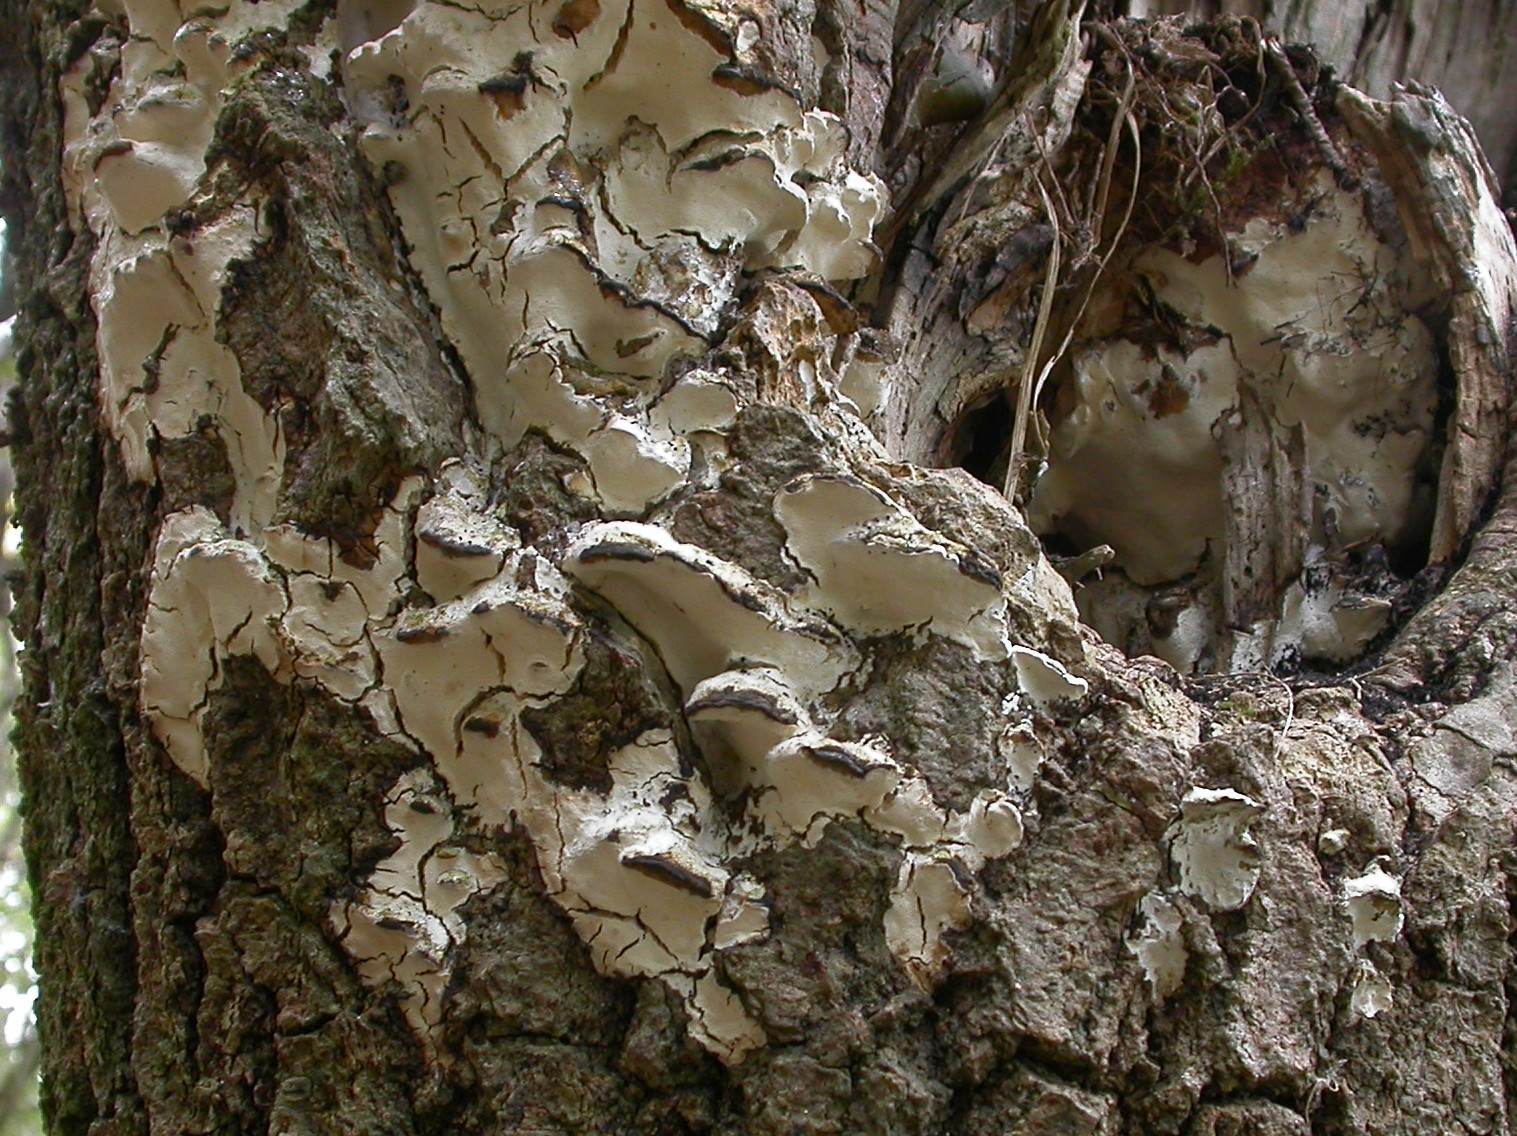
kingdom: Fungi
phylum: Basidiomycota
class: Agaricomycetes
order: Hymenochaetales
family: Oxyporaceae
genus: Oxyporus
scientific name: Oxyporus populinus
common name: sammenvokset trylleporesvamp
